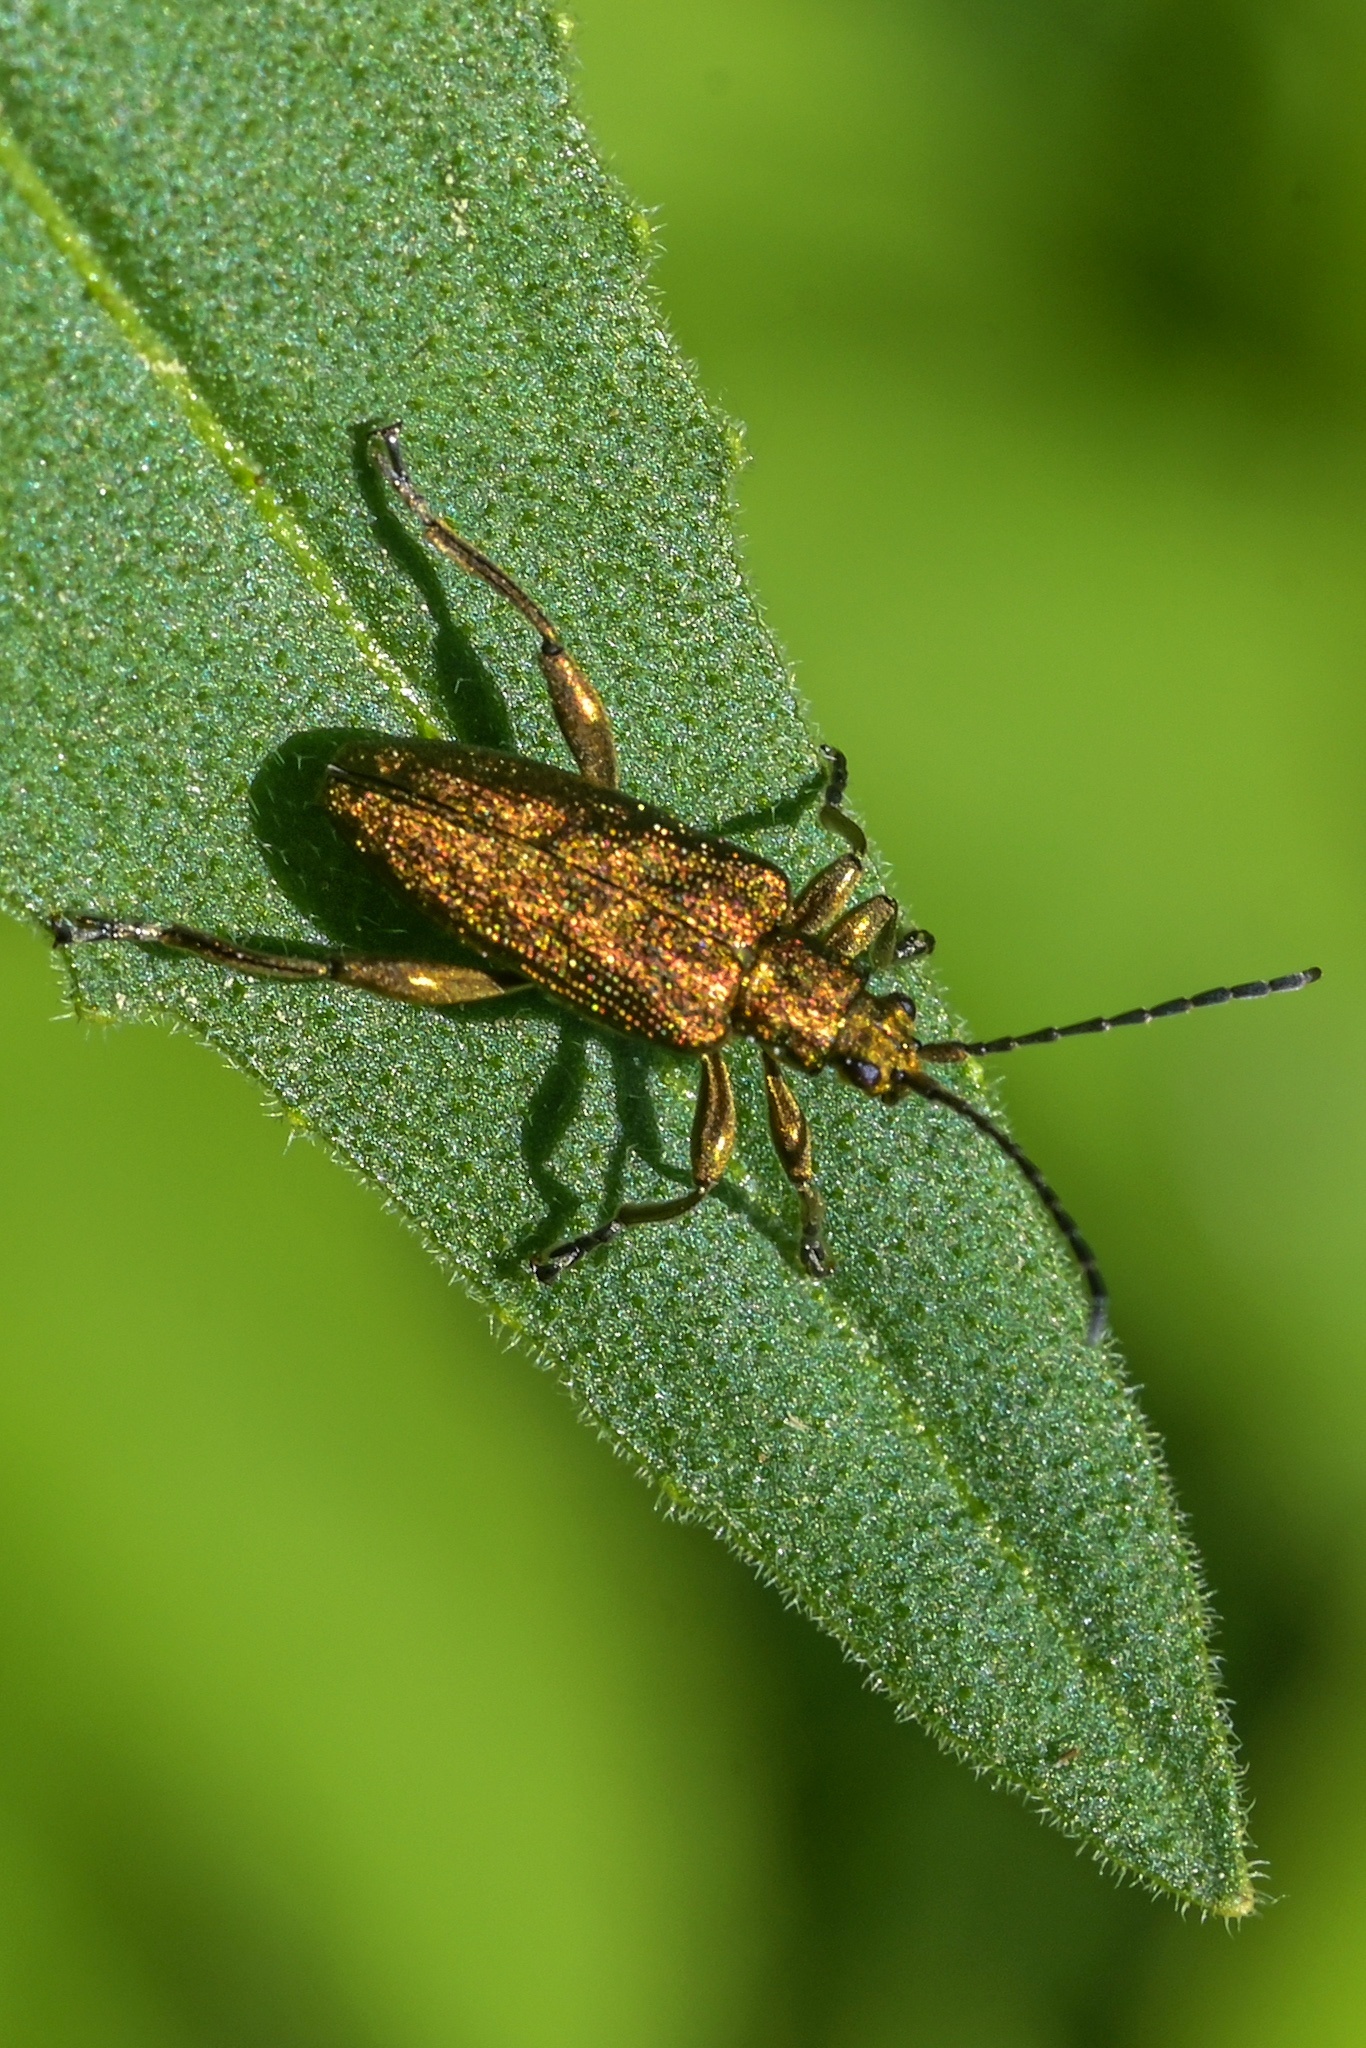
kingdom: Animalia
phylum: Arthropoda
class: Insecta
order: Coleoptera
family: Chrysomelidae
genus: Donacia
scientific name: Donacia bicolora
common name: Reed beetle
